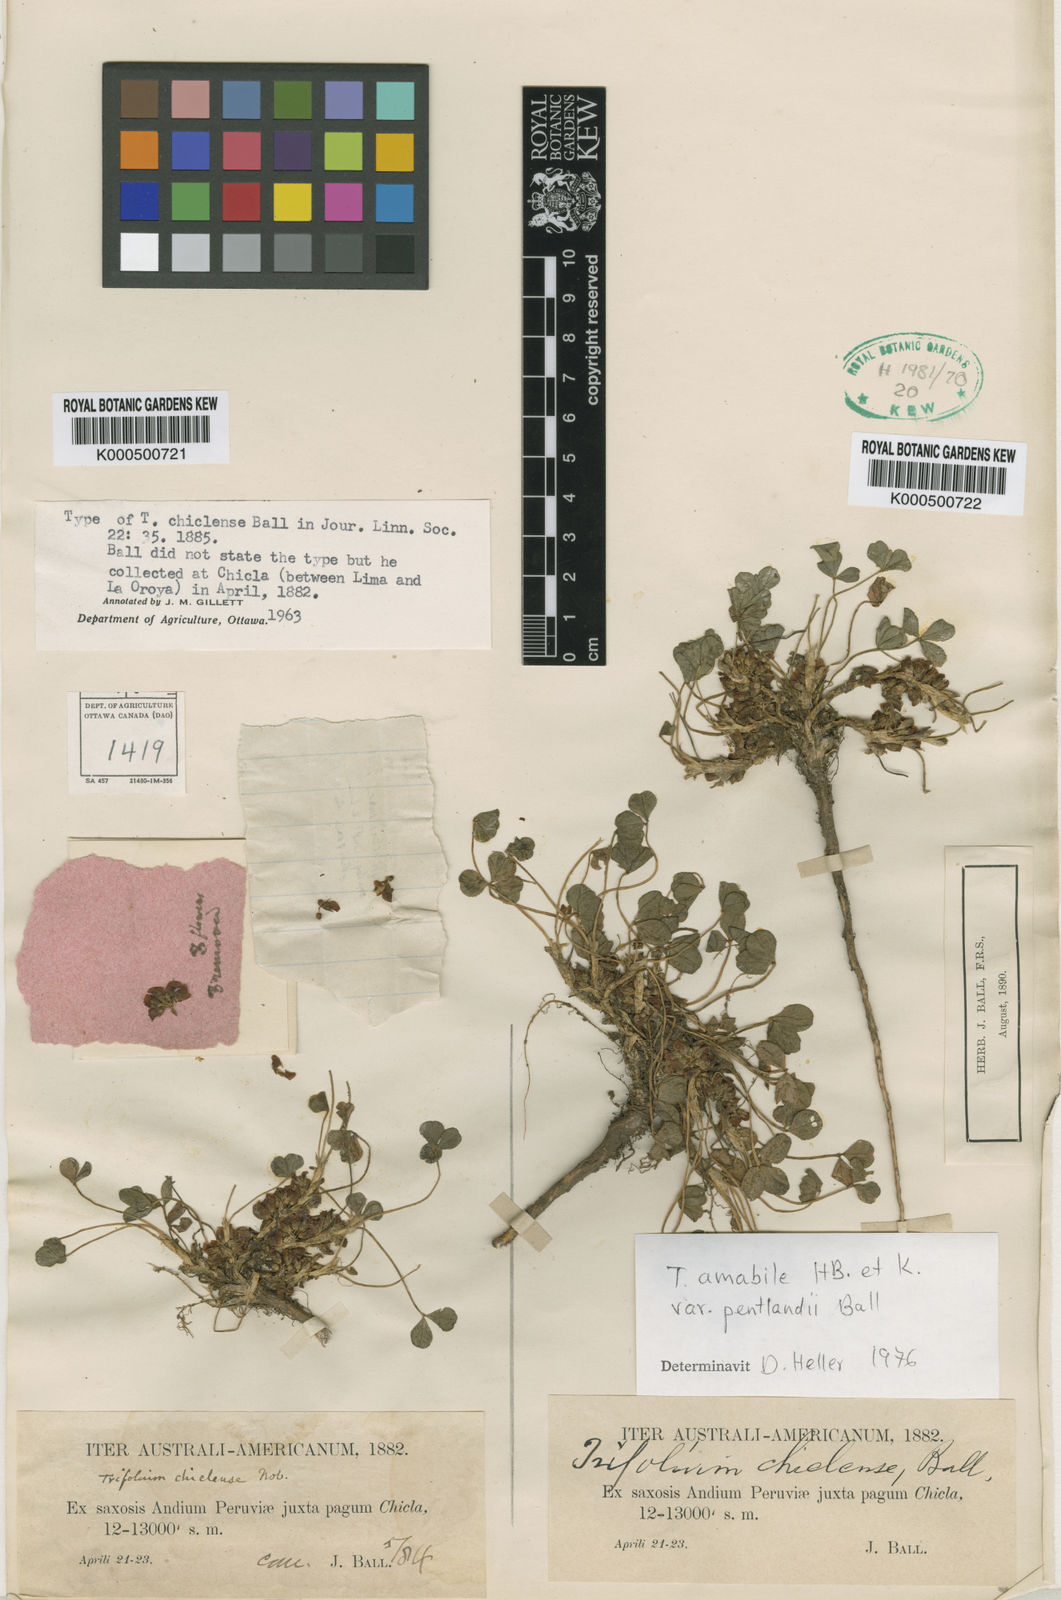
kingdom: Plantae
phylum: Tracheophyta
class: Magnoliopsida
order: Fabales
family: Fabaceae
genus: Trifolium
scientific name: Trifolium peruvianum
